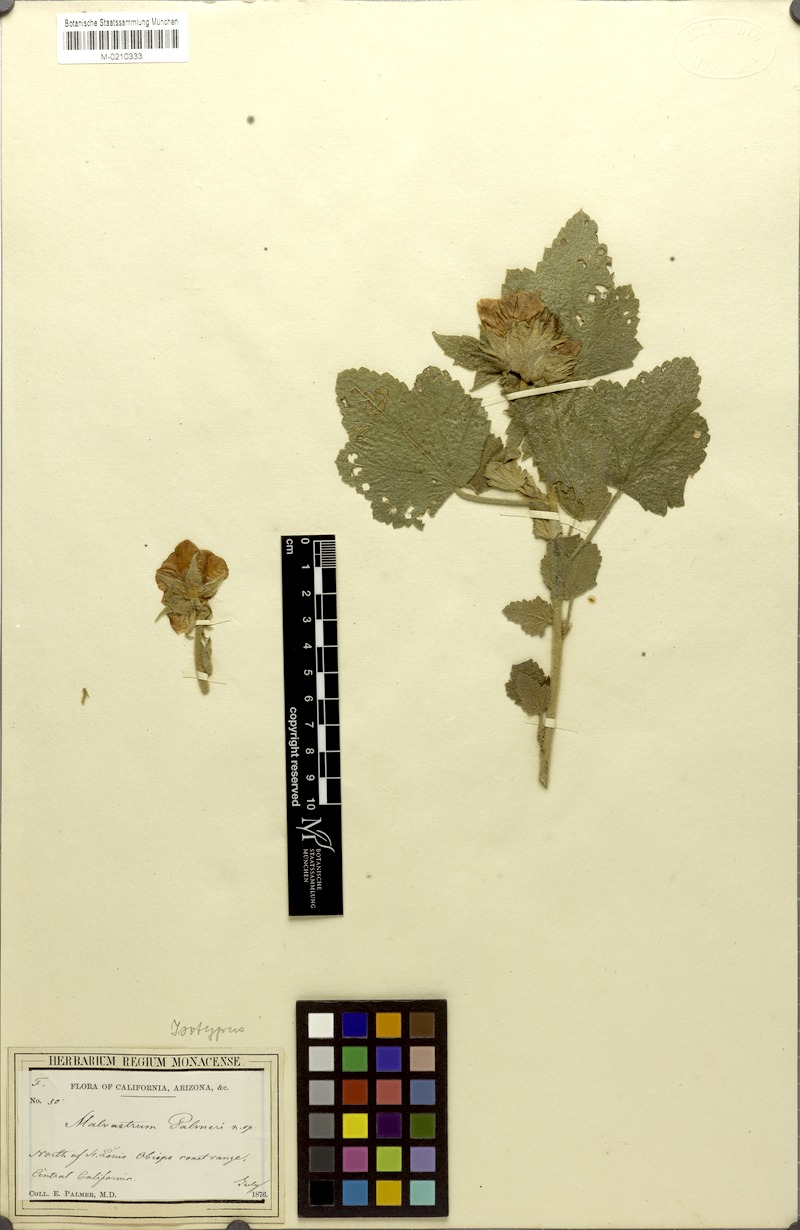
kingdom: Plantae
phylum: Tracheophyta
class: Magnoliopsida
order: Malvales
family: Malvaceae
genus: Malacothamnus
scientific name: Malacothamnus palmeri
